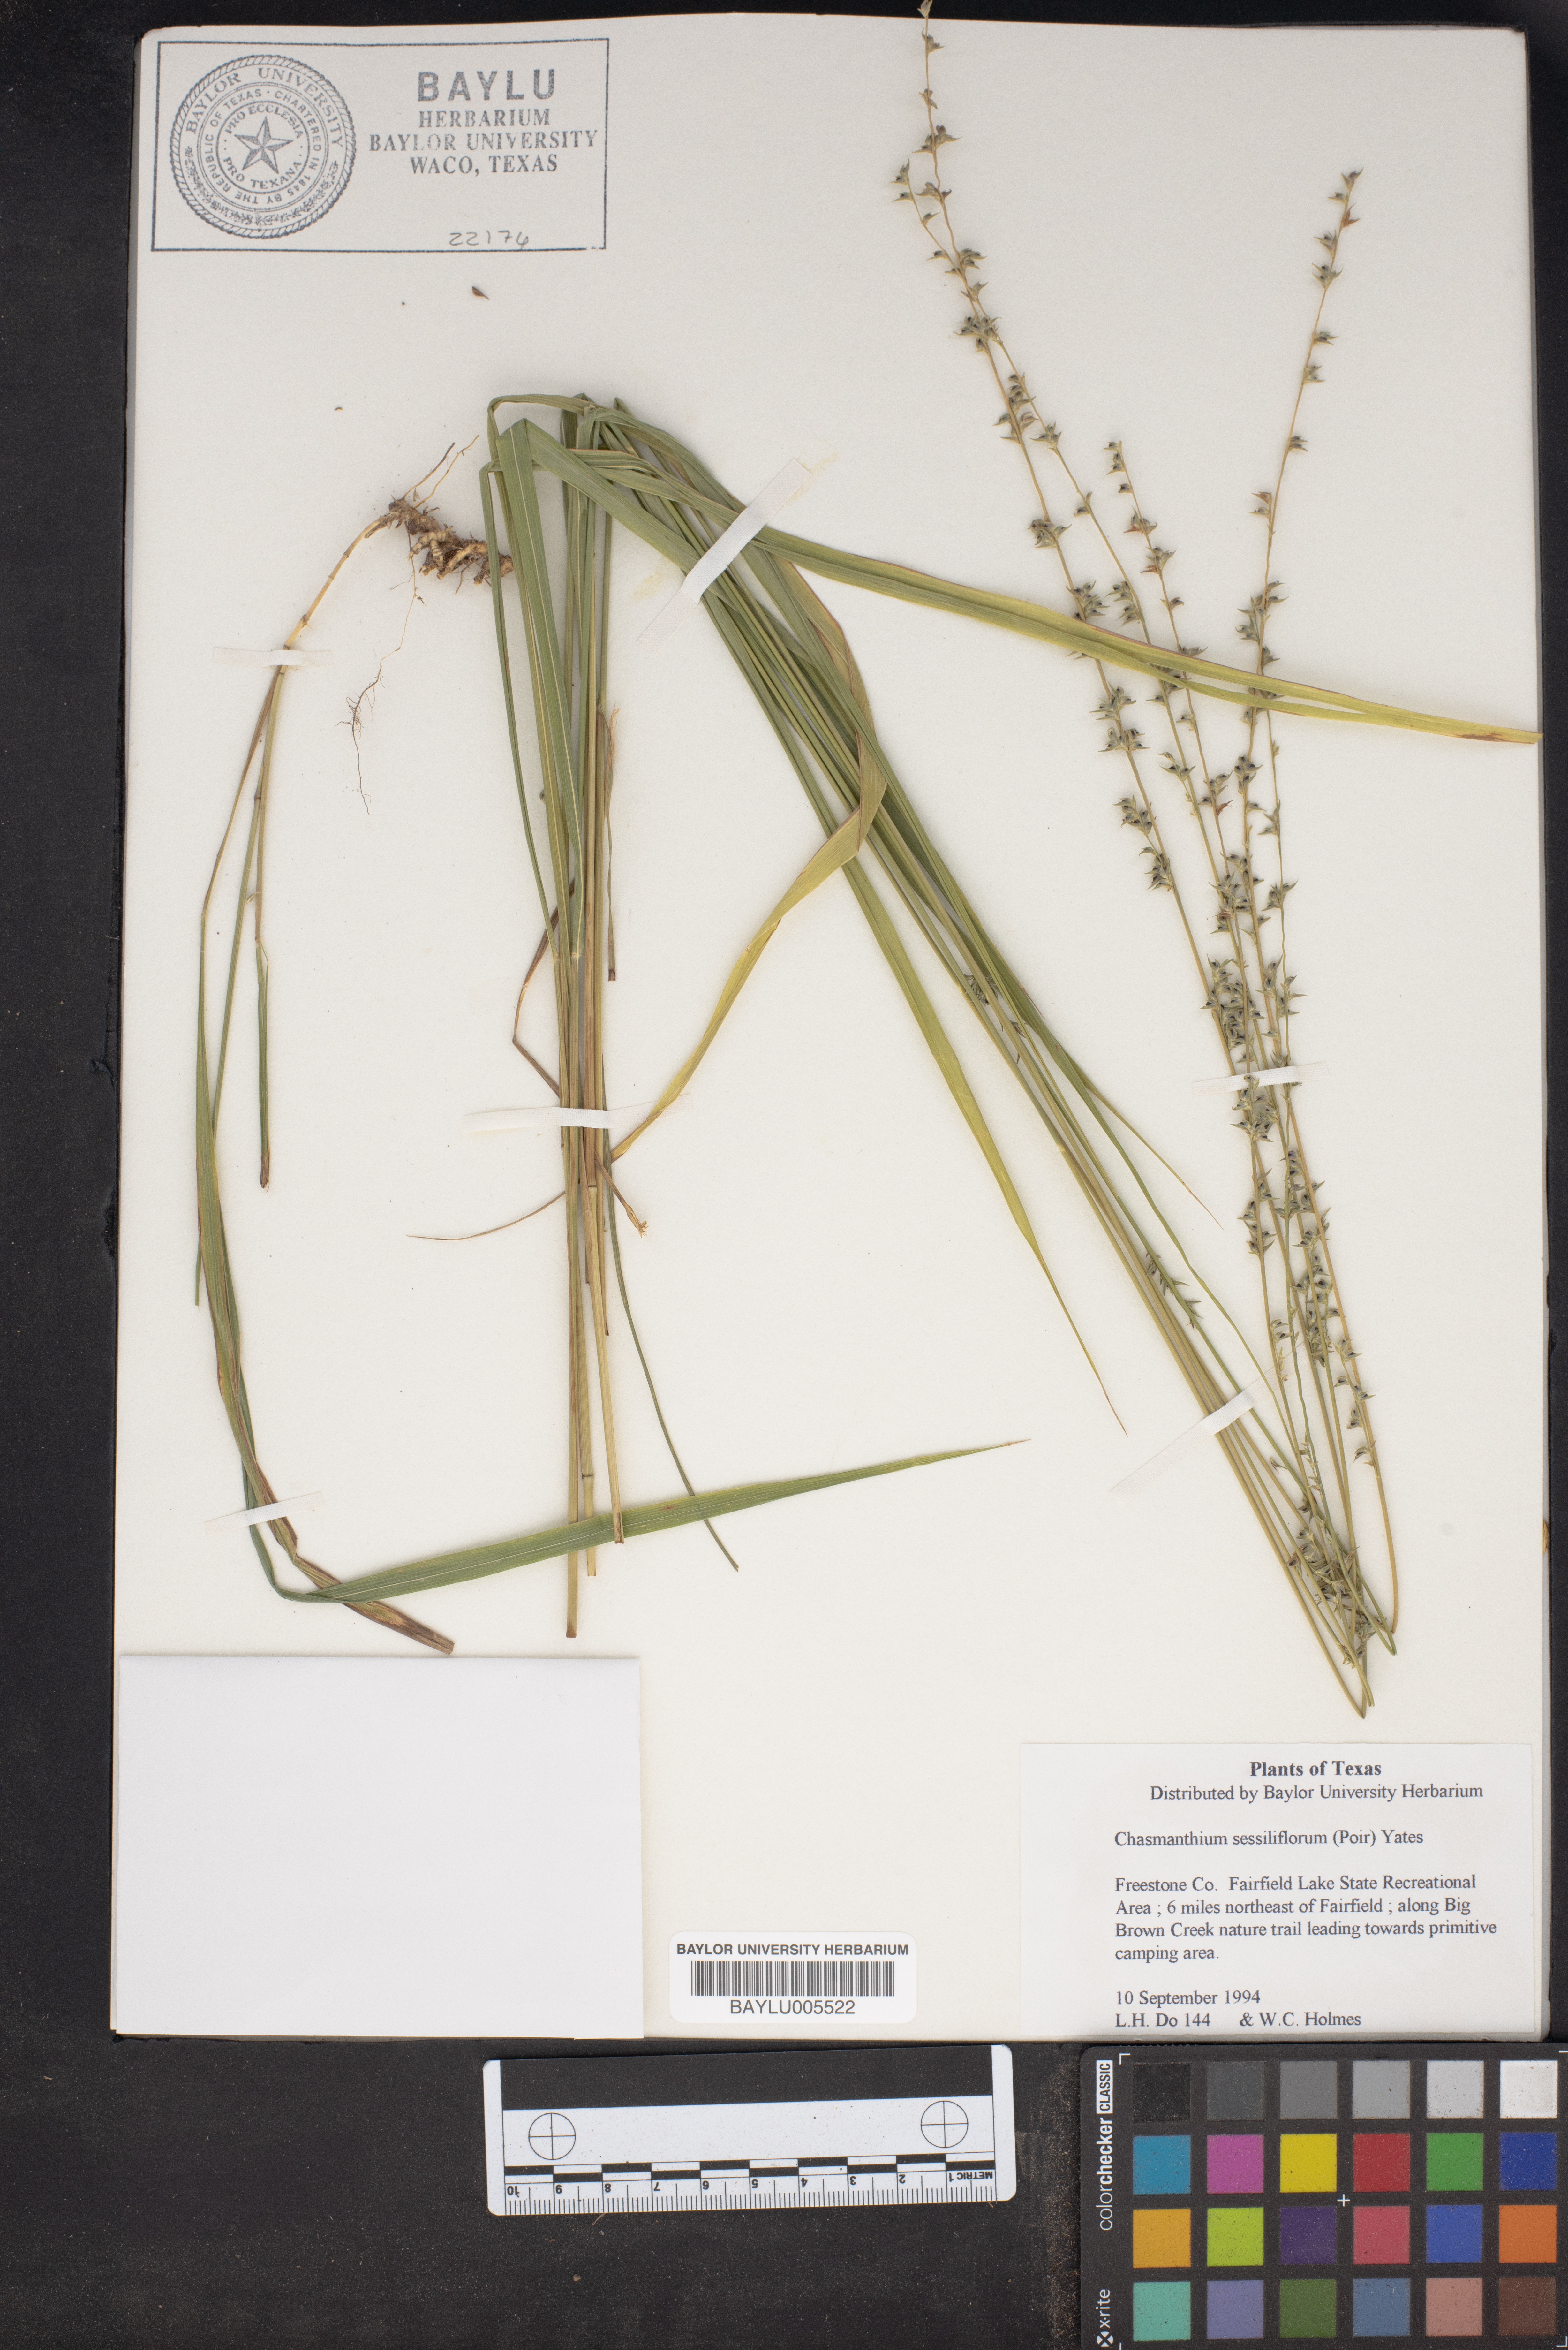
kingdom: Plantae
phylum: Tracheophyta
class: Liliopsida
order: Poales
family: Poaceae
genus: Chasmanthium
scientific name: Chasmanthium laxum
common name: Slender chasmanthium
